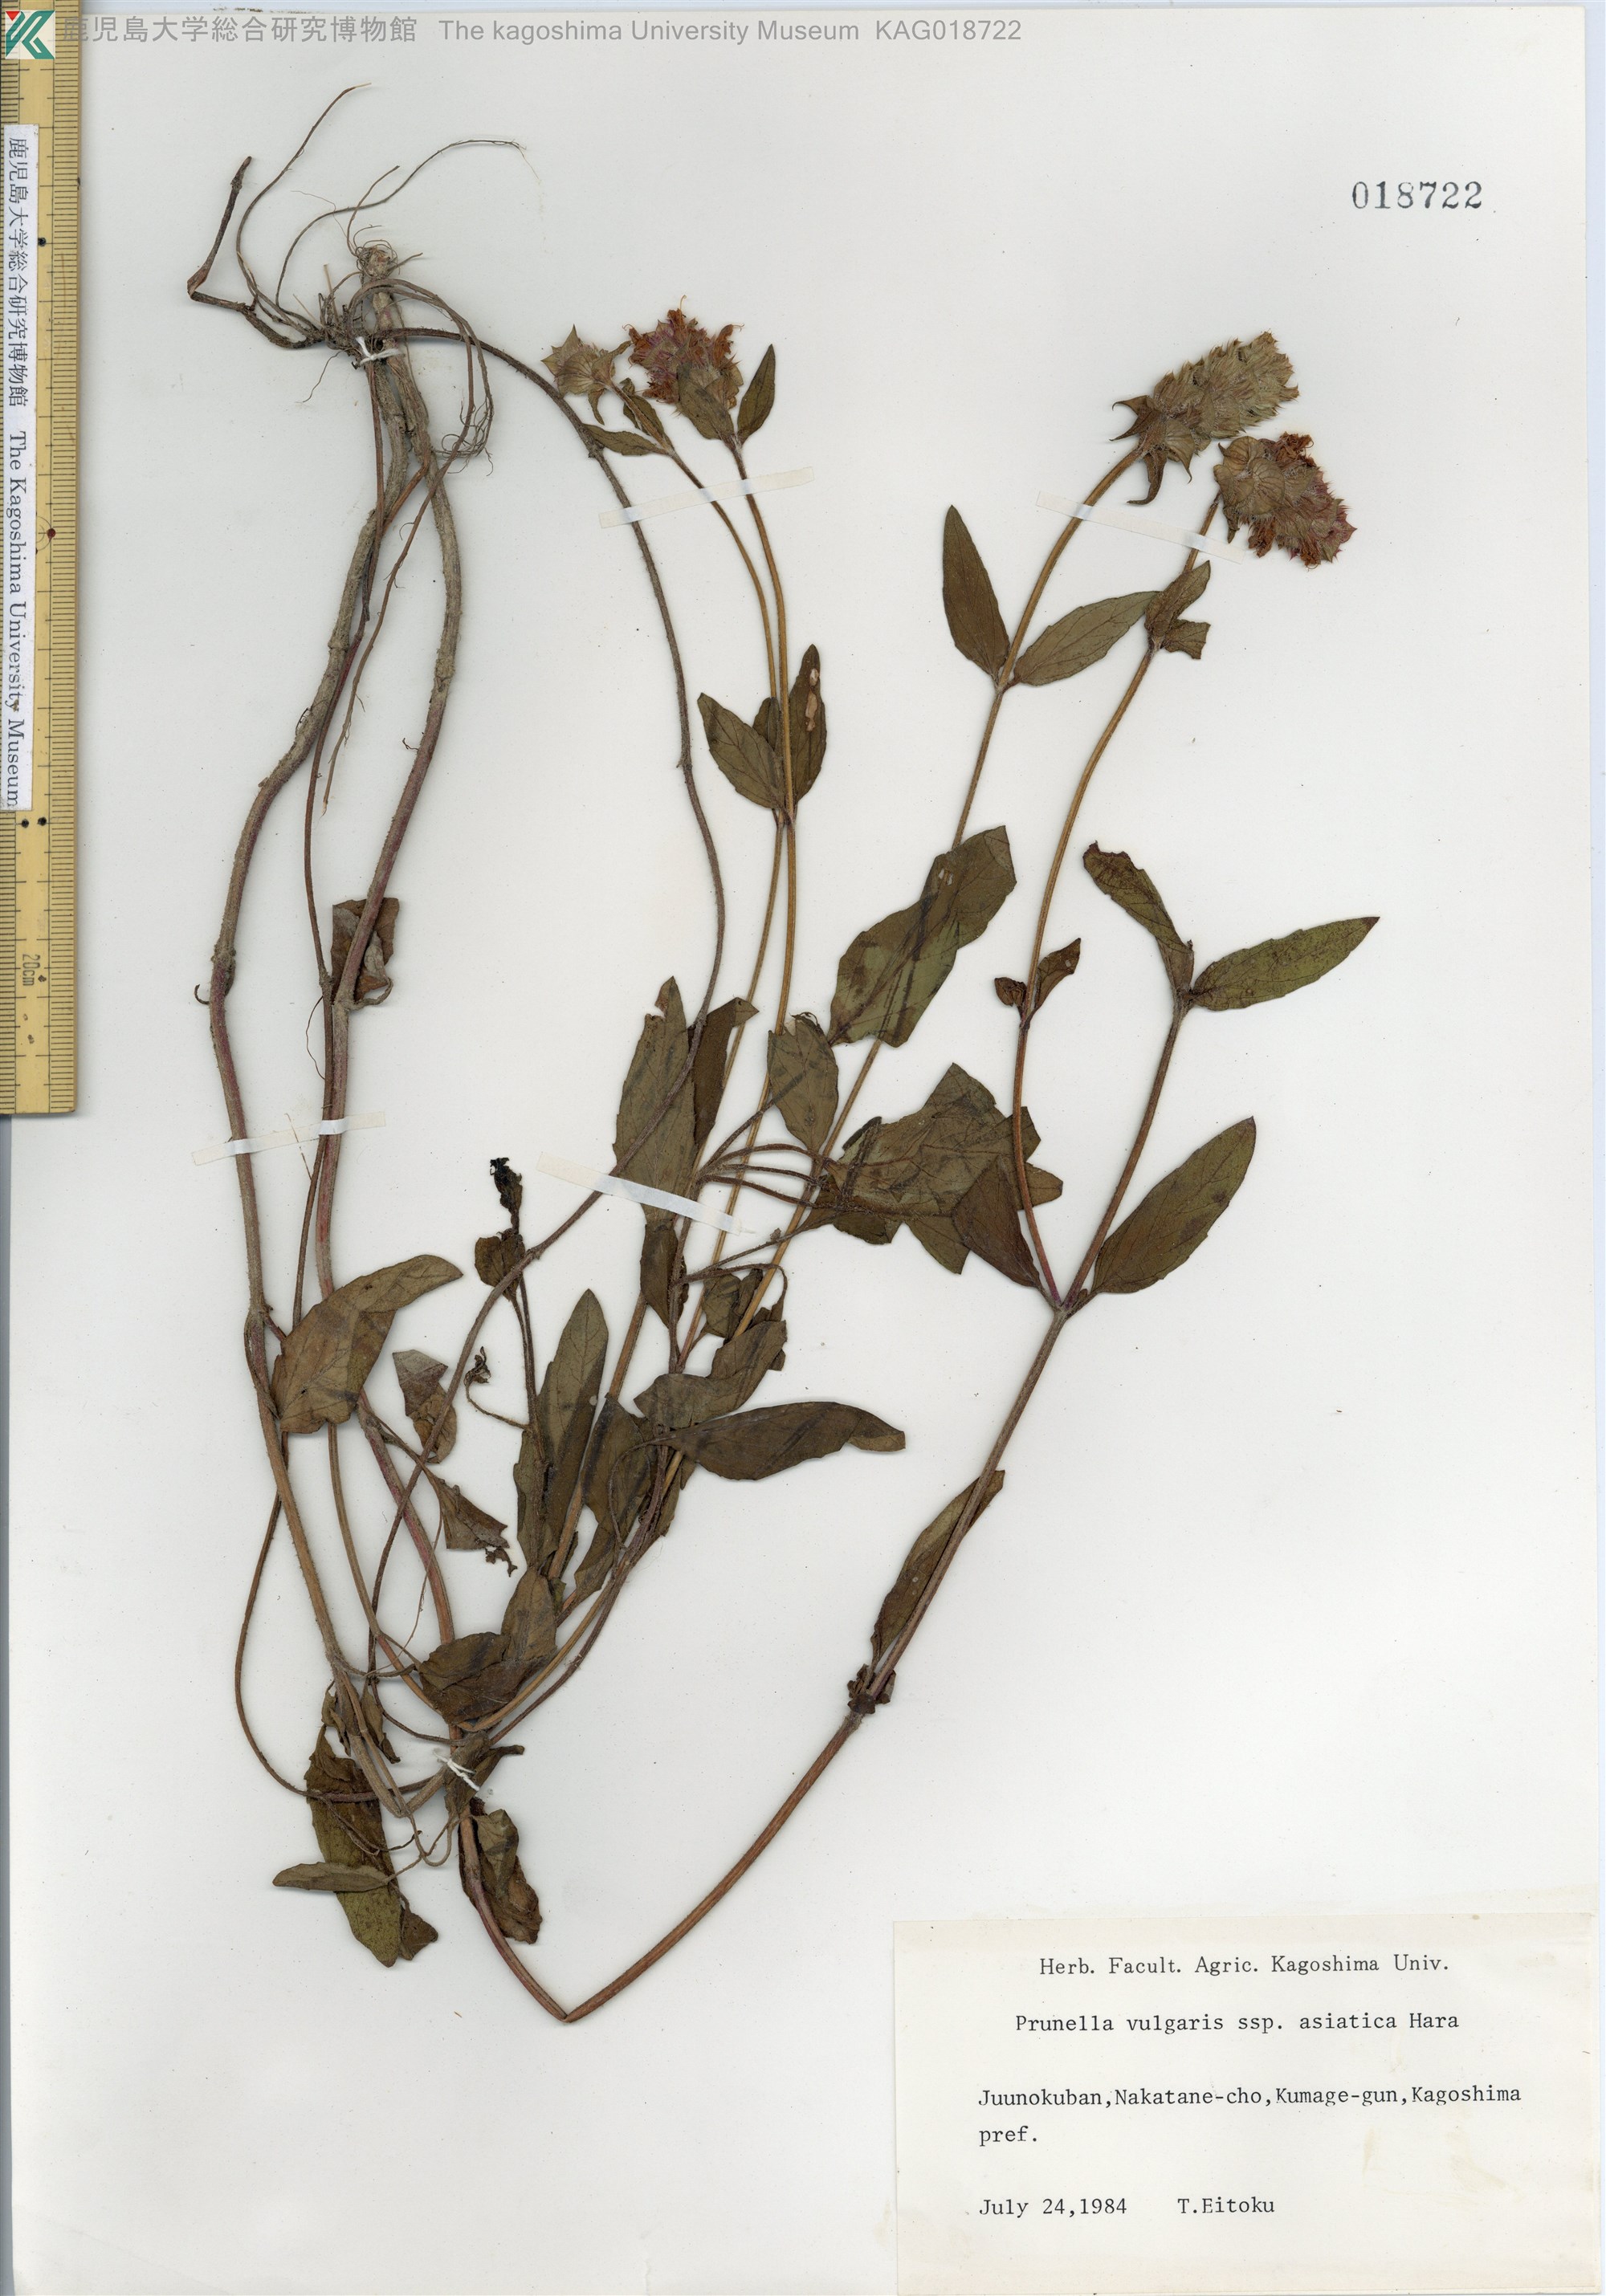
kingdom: Plantae
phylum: Tracheophyta
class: Magnoliopsida
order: Lamiales
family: Lamiaceae
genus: Prunella
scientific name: Prunella vulgaris
